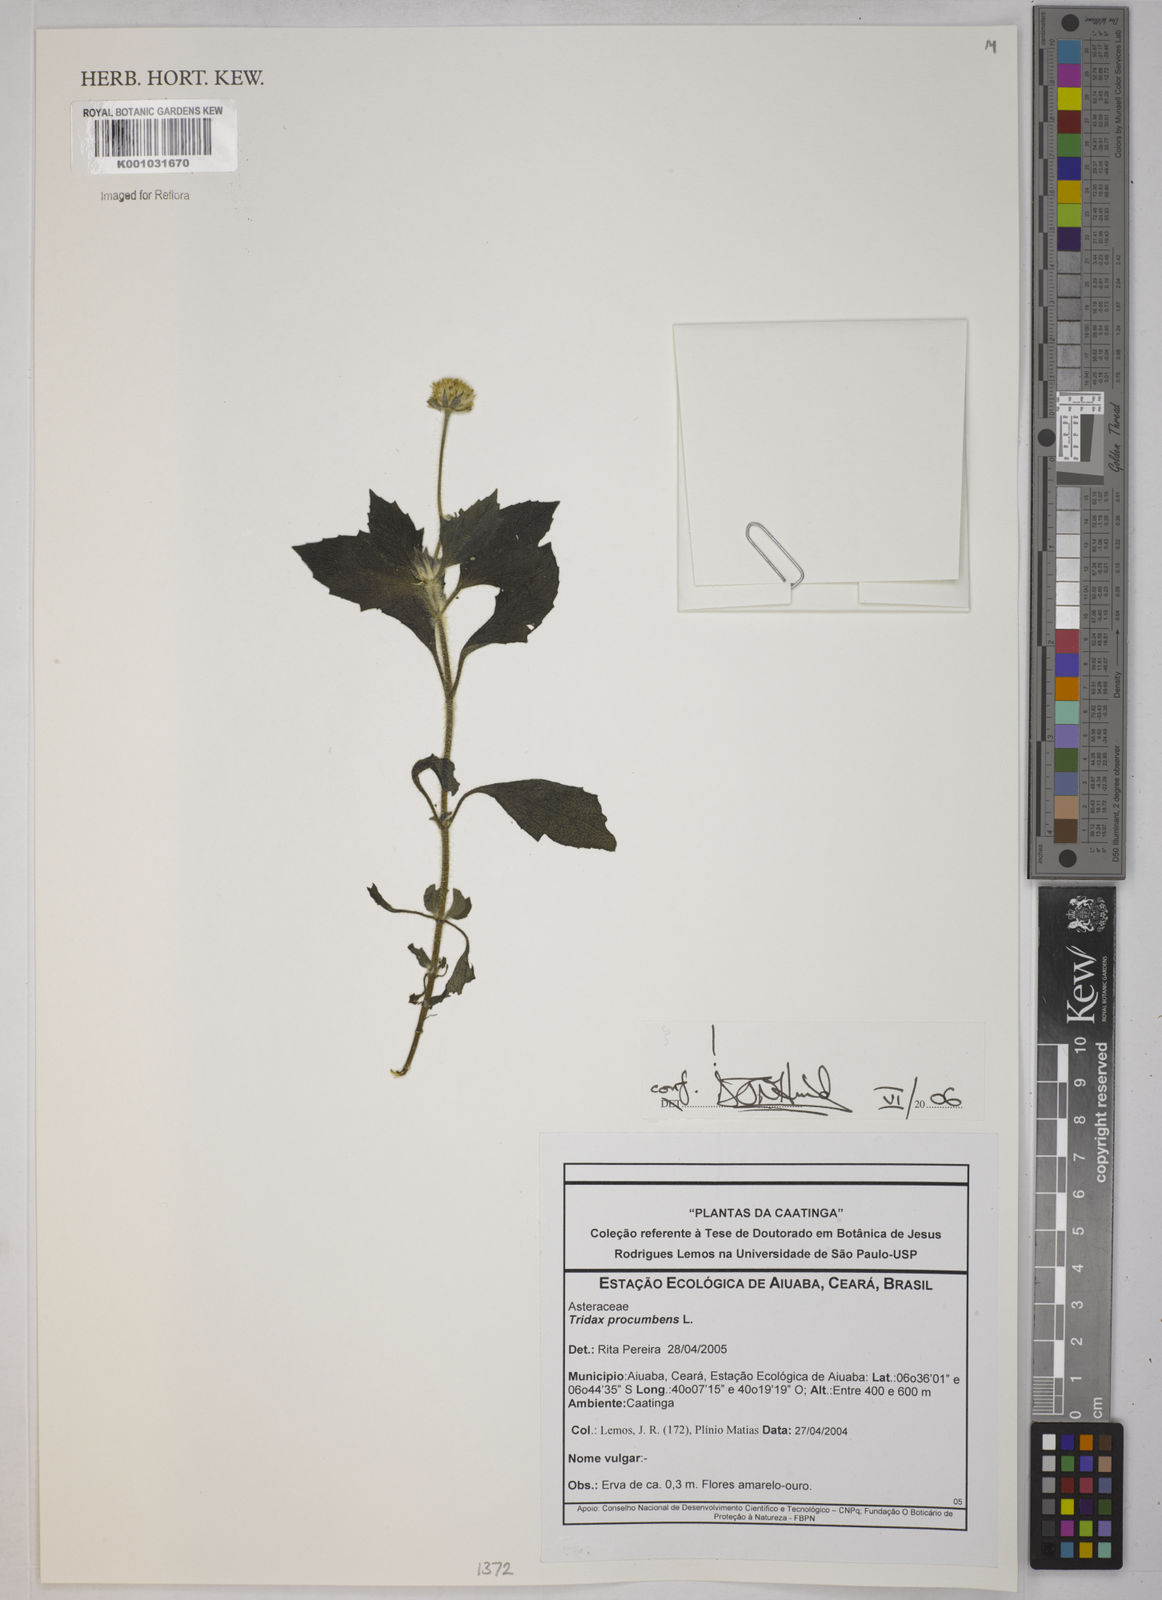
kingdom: Plantae
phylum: Tracheophyta
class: Magnoliopsida
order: Asterales
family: Asteraceae
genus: Tridax
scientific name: Tridax procumbens
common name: Coatbuttons
